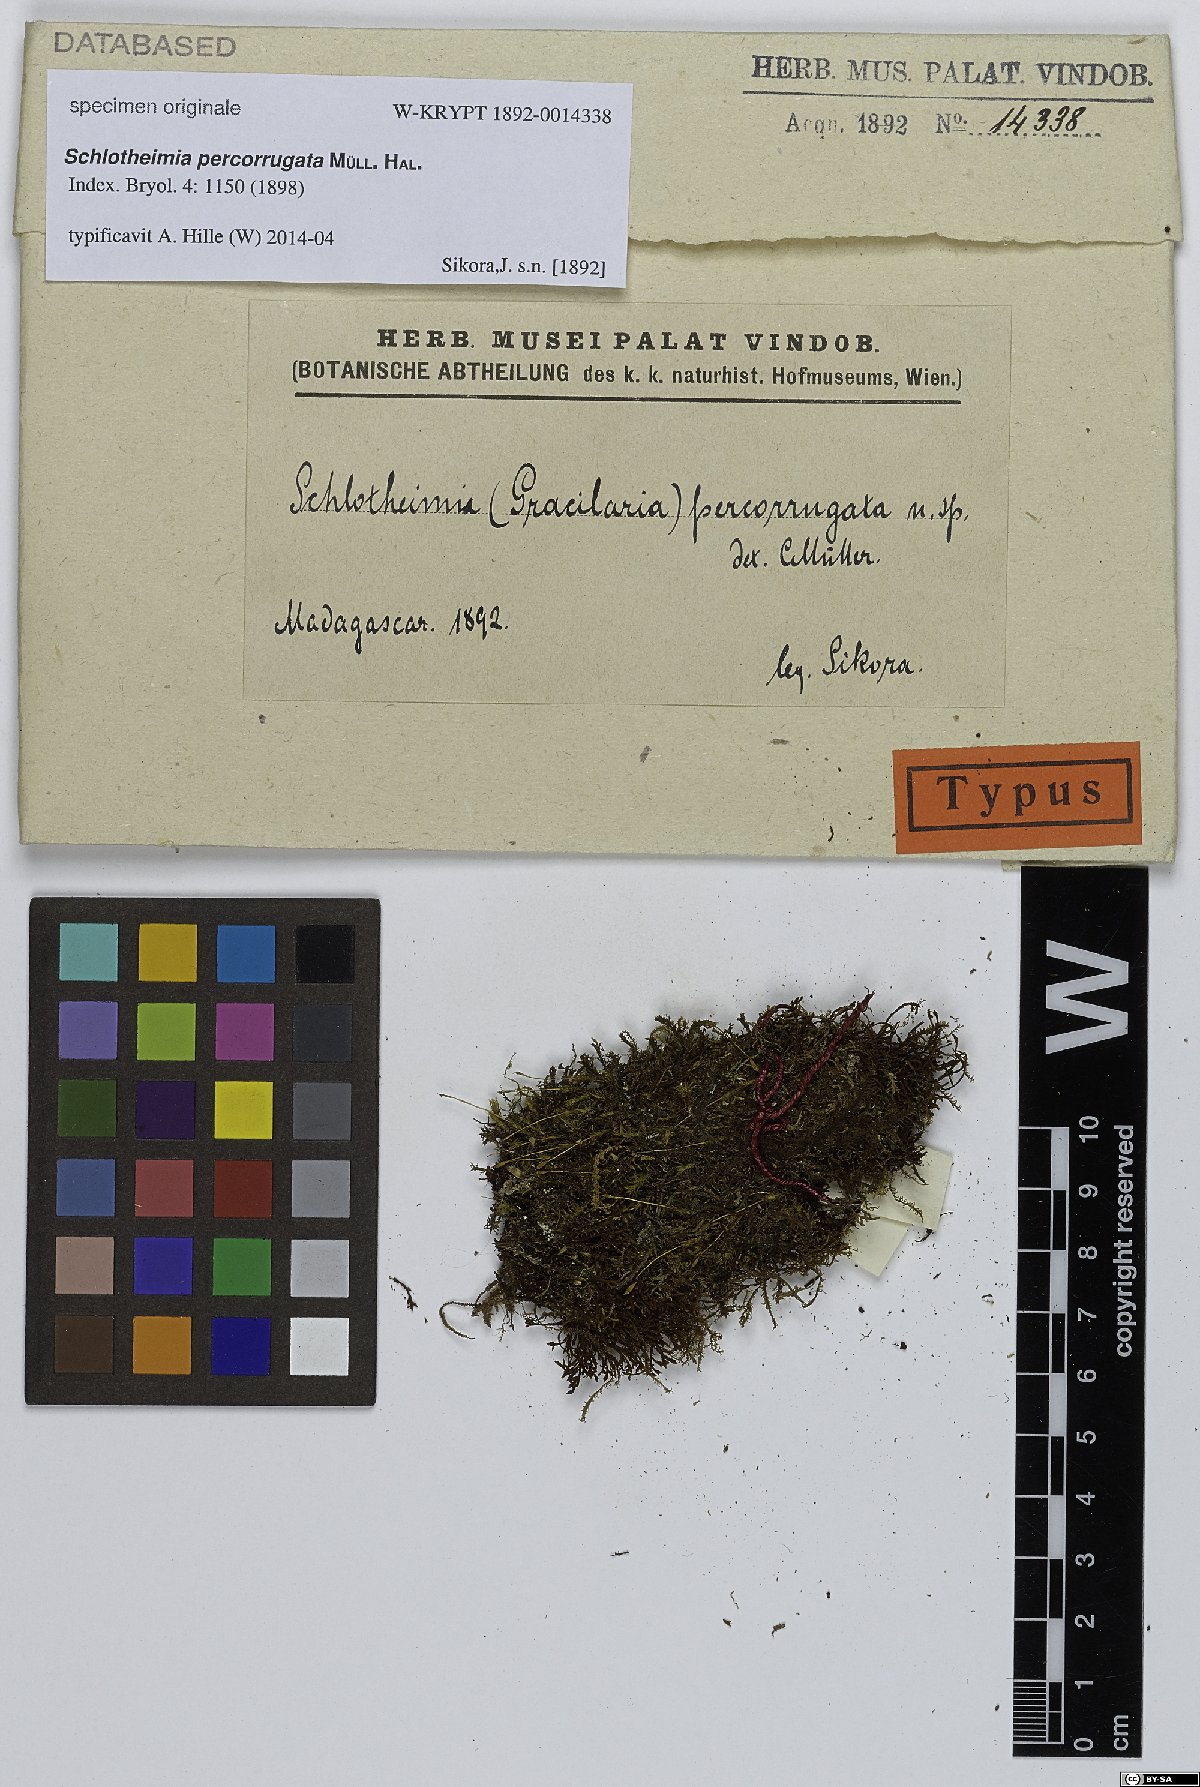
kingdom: Plantae
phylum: Bryophyta
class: Bryopsida
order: Orthotrichales
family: Orthotrichaceae
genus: Schlotheimia
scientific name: Schlotheimia
